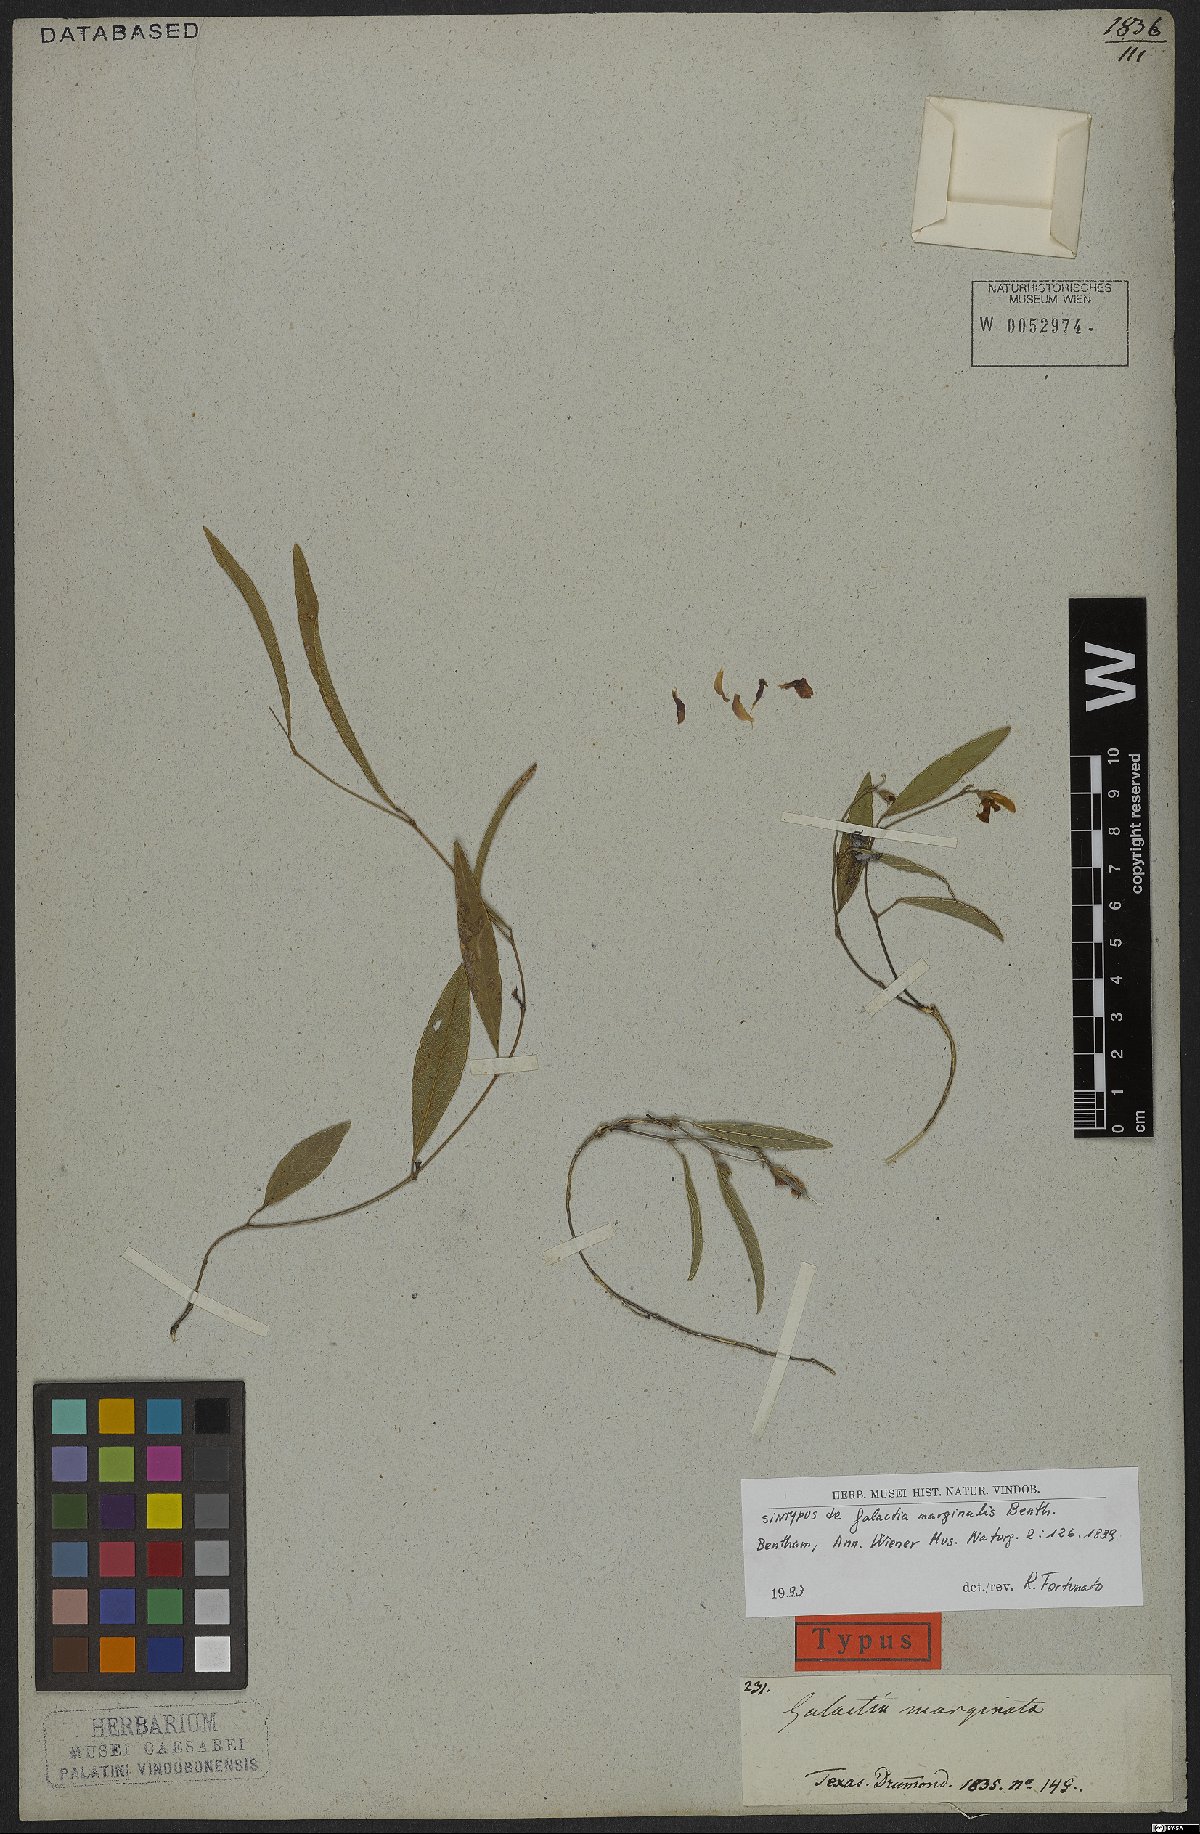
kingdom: Plantae
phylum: Tracheophyta
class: Magnoliopsida
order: Fabales
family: Fabaceae
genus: Nanogalactia
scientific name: Nanogalactia heterophylla
